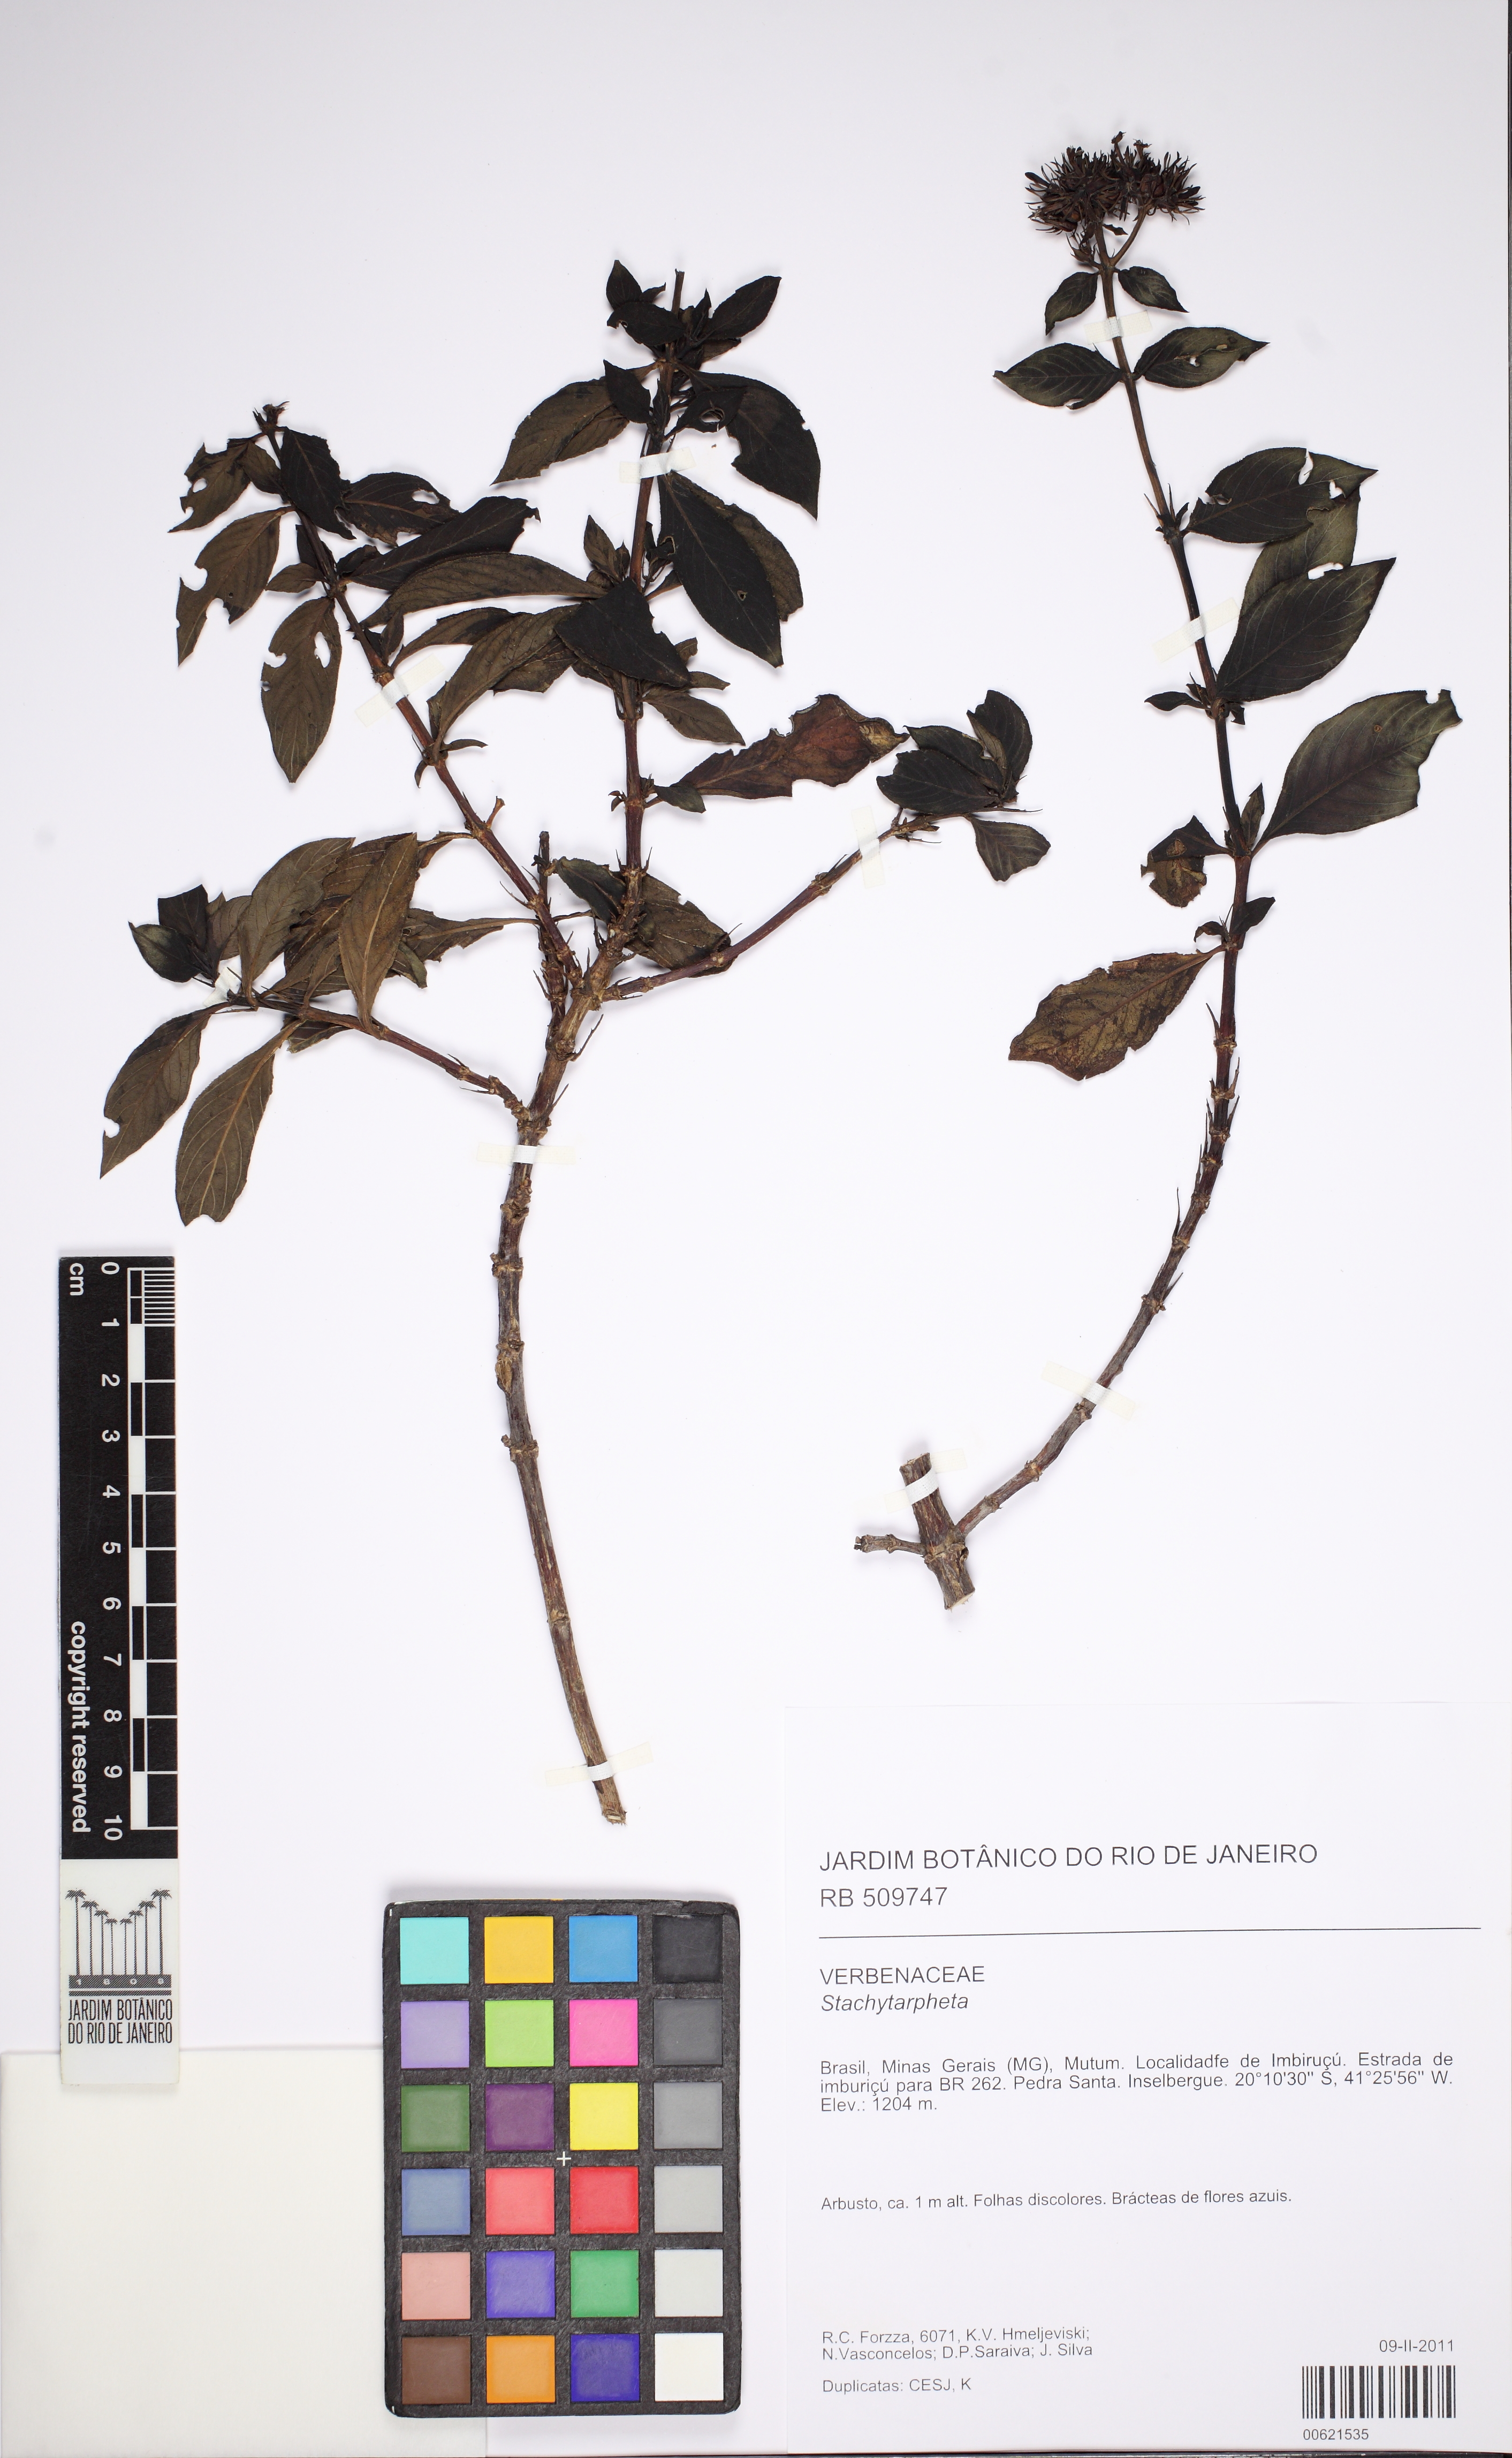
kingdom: Plantae
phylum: Tracheophyta
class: Magnoliopsida
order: Gentianales
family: Rubiaceae
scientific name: Rubiaceae
